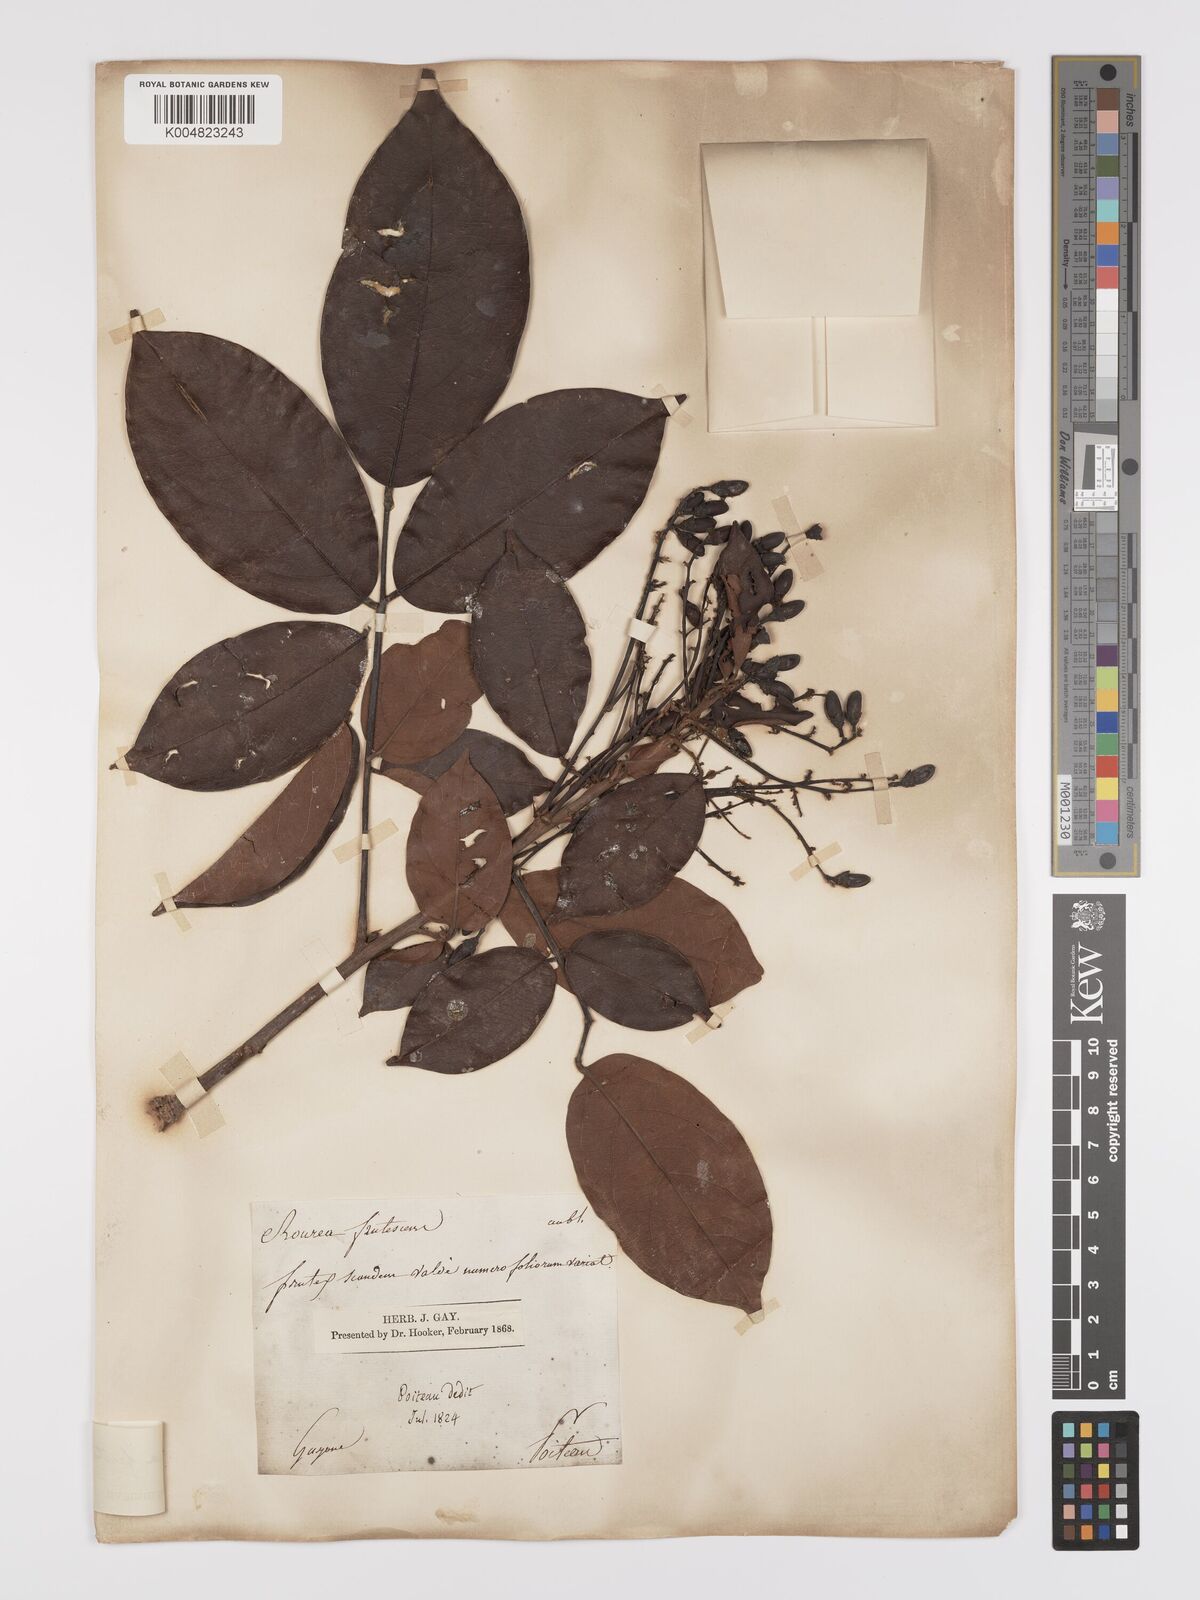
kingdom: Plantae
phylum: Tracheophyta
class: Magnoliopsida
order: Oxalidales
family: Connaraceae
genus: Rourea
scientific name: Rourea frutescens
